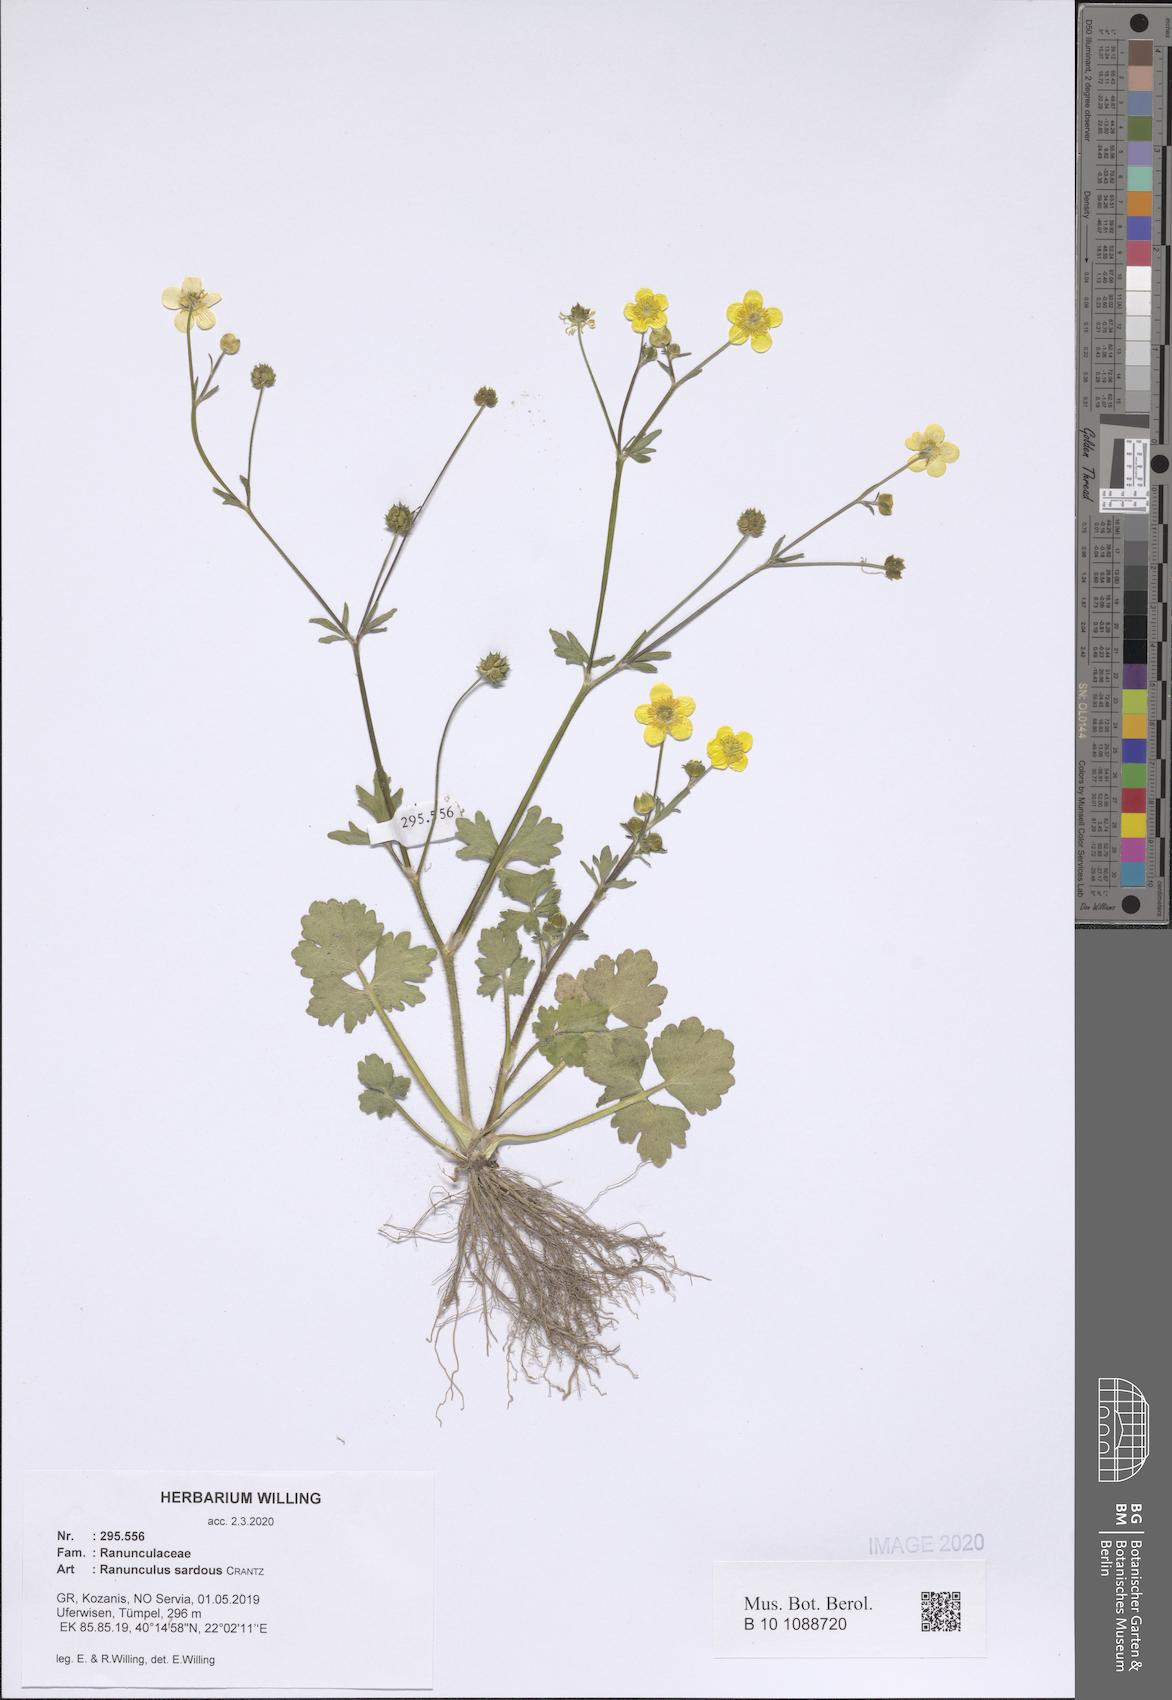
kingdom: Plantae
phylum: Tracheophyta
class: Magnoliopsida
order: Ranunculales
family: Ranunculaceae
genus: Ranunculus
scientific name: Ranunculus sardous
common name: Hairy buttercup
